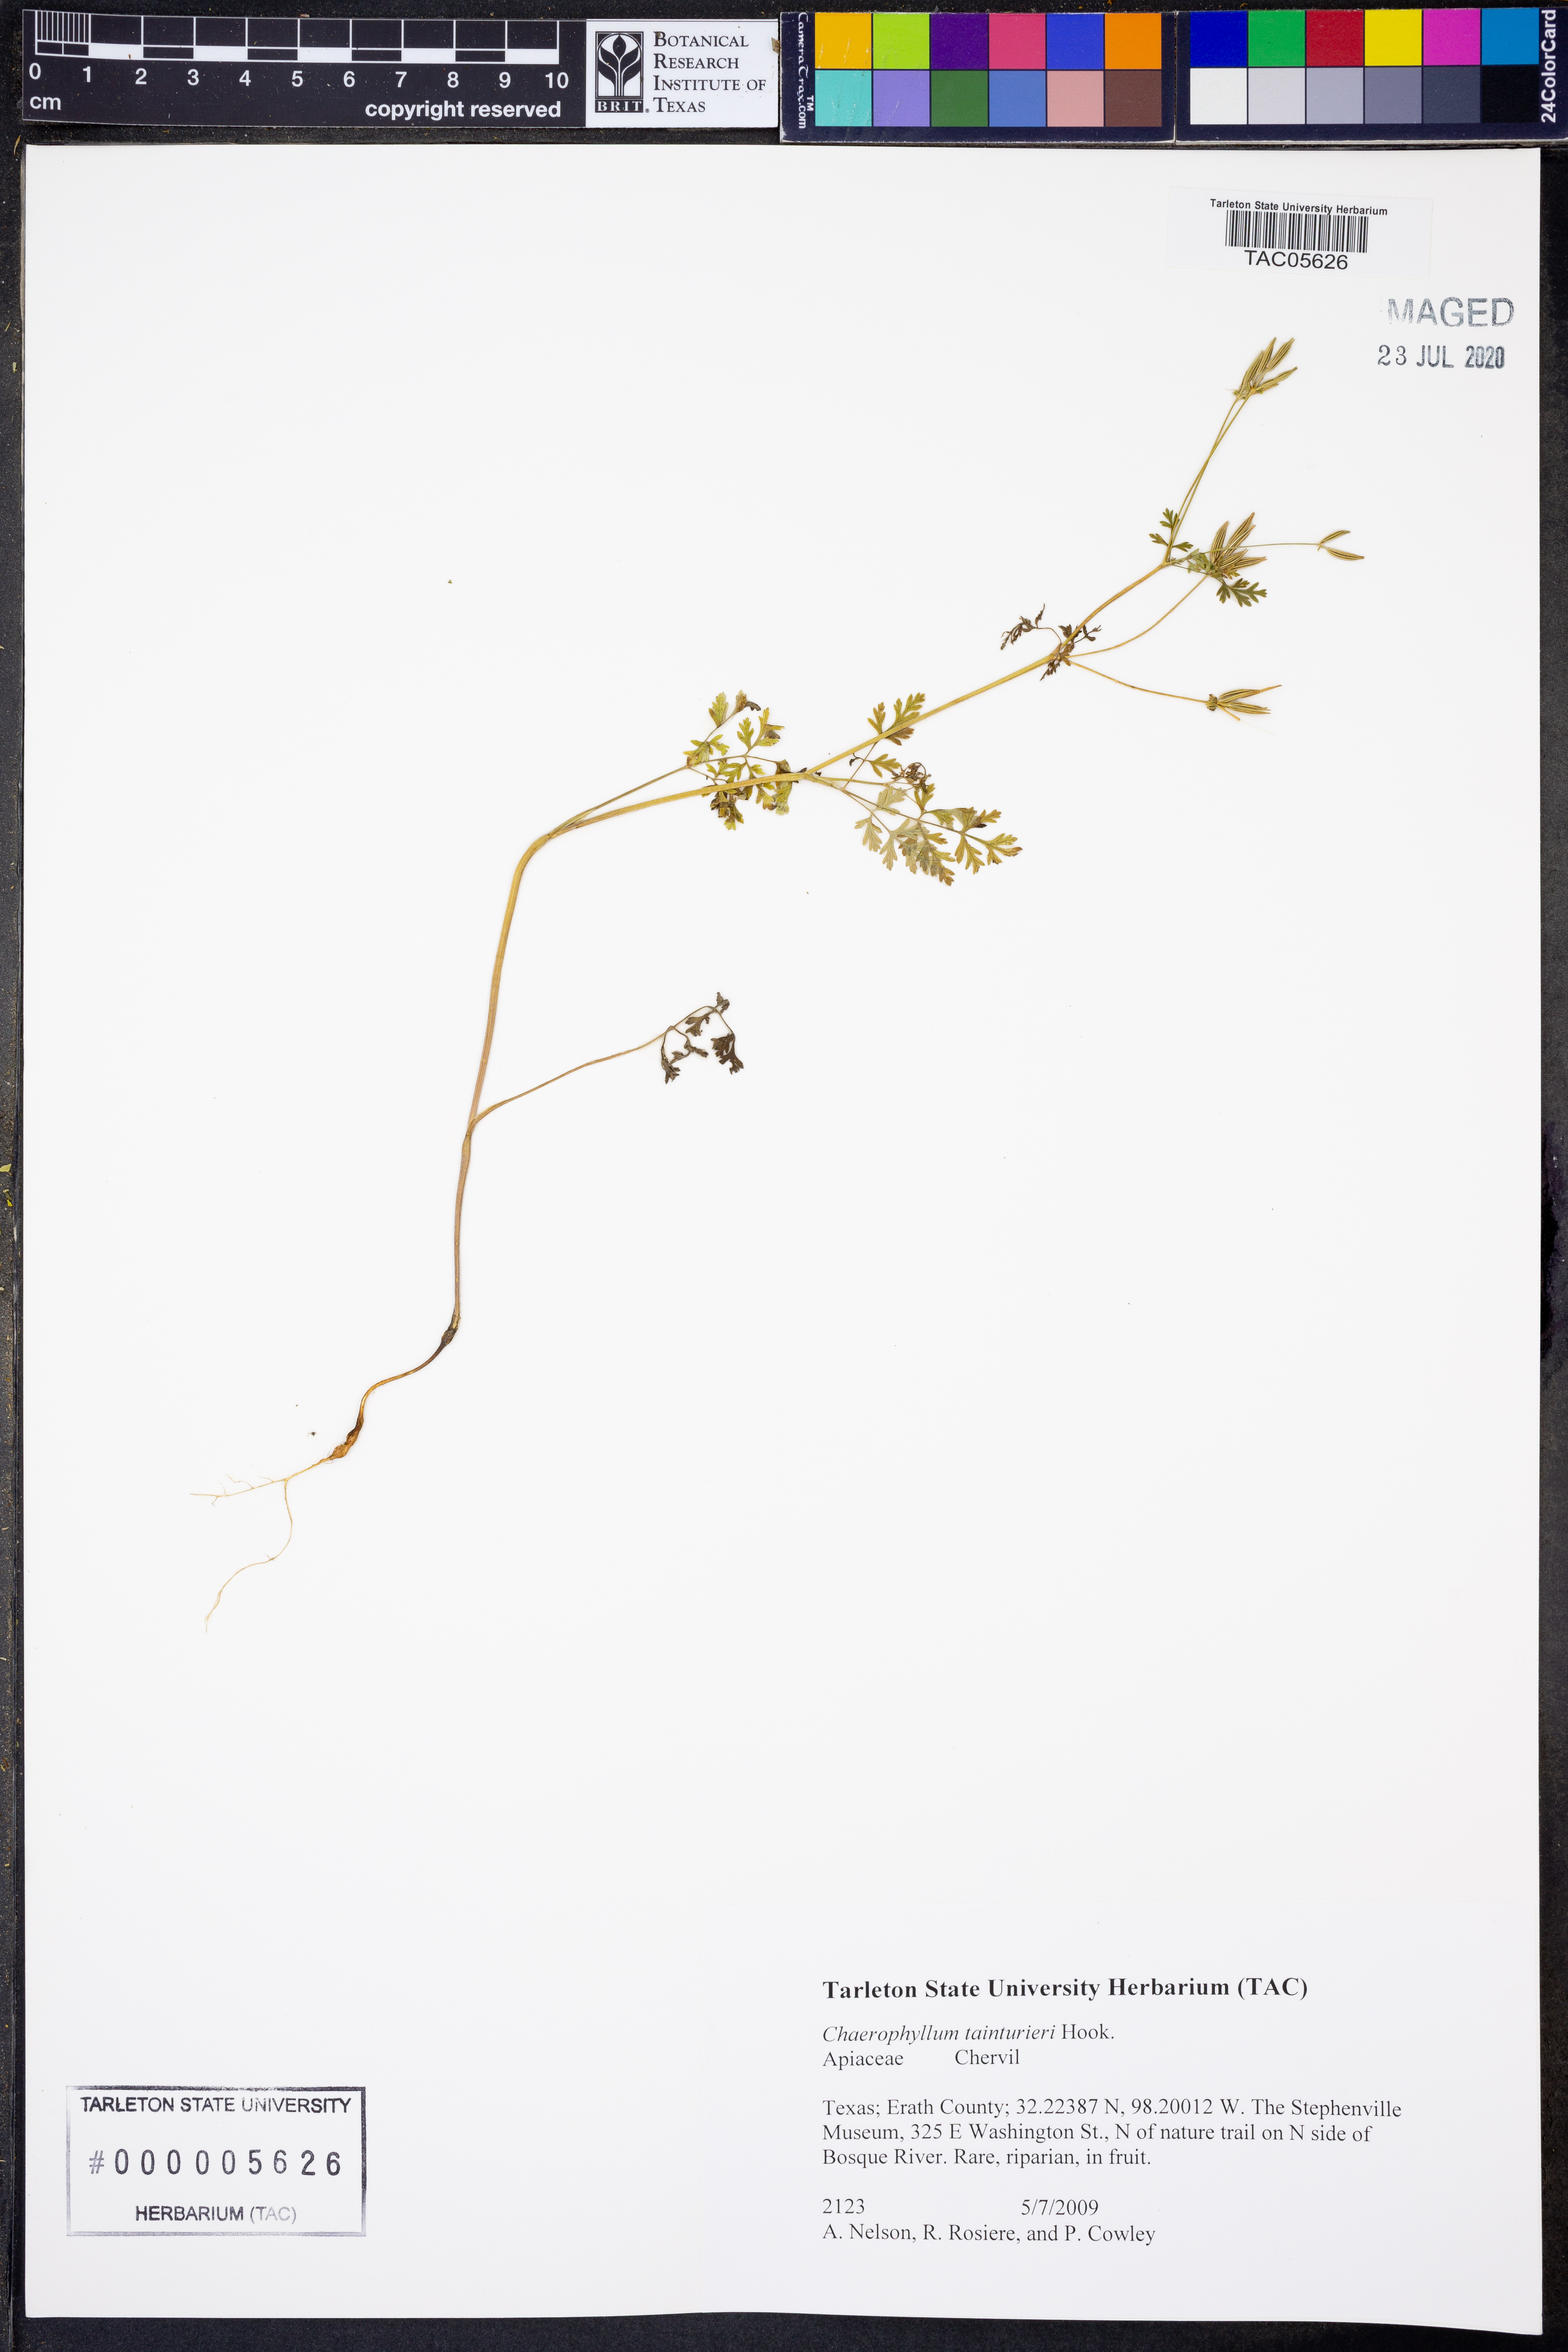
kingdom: Plantae
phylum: Tracheophyta
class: Magnoliopsida
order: Apiales
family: Apiaceae
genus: Chaerophyllum
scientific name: Chaerophyllum tainturieri
